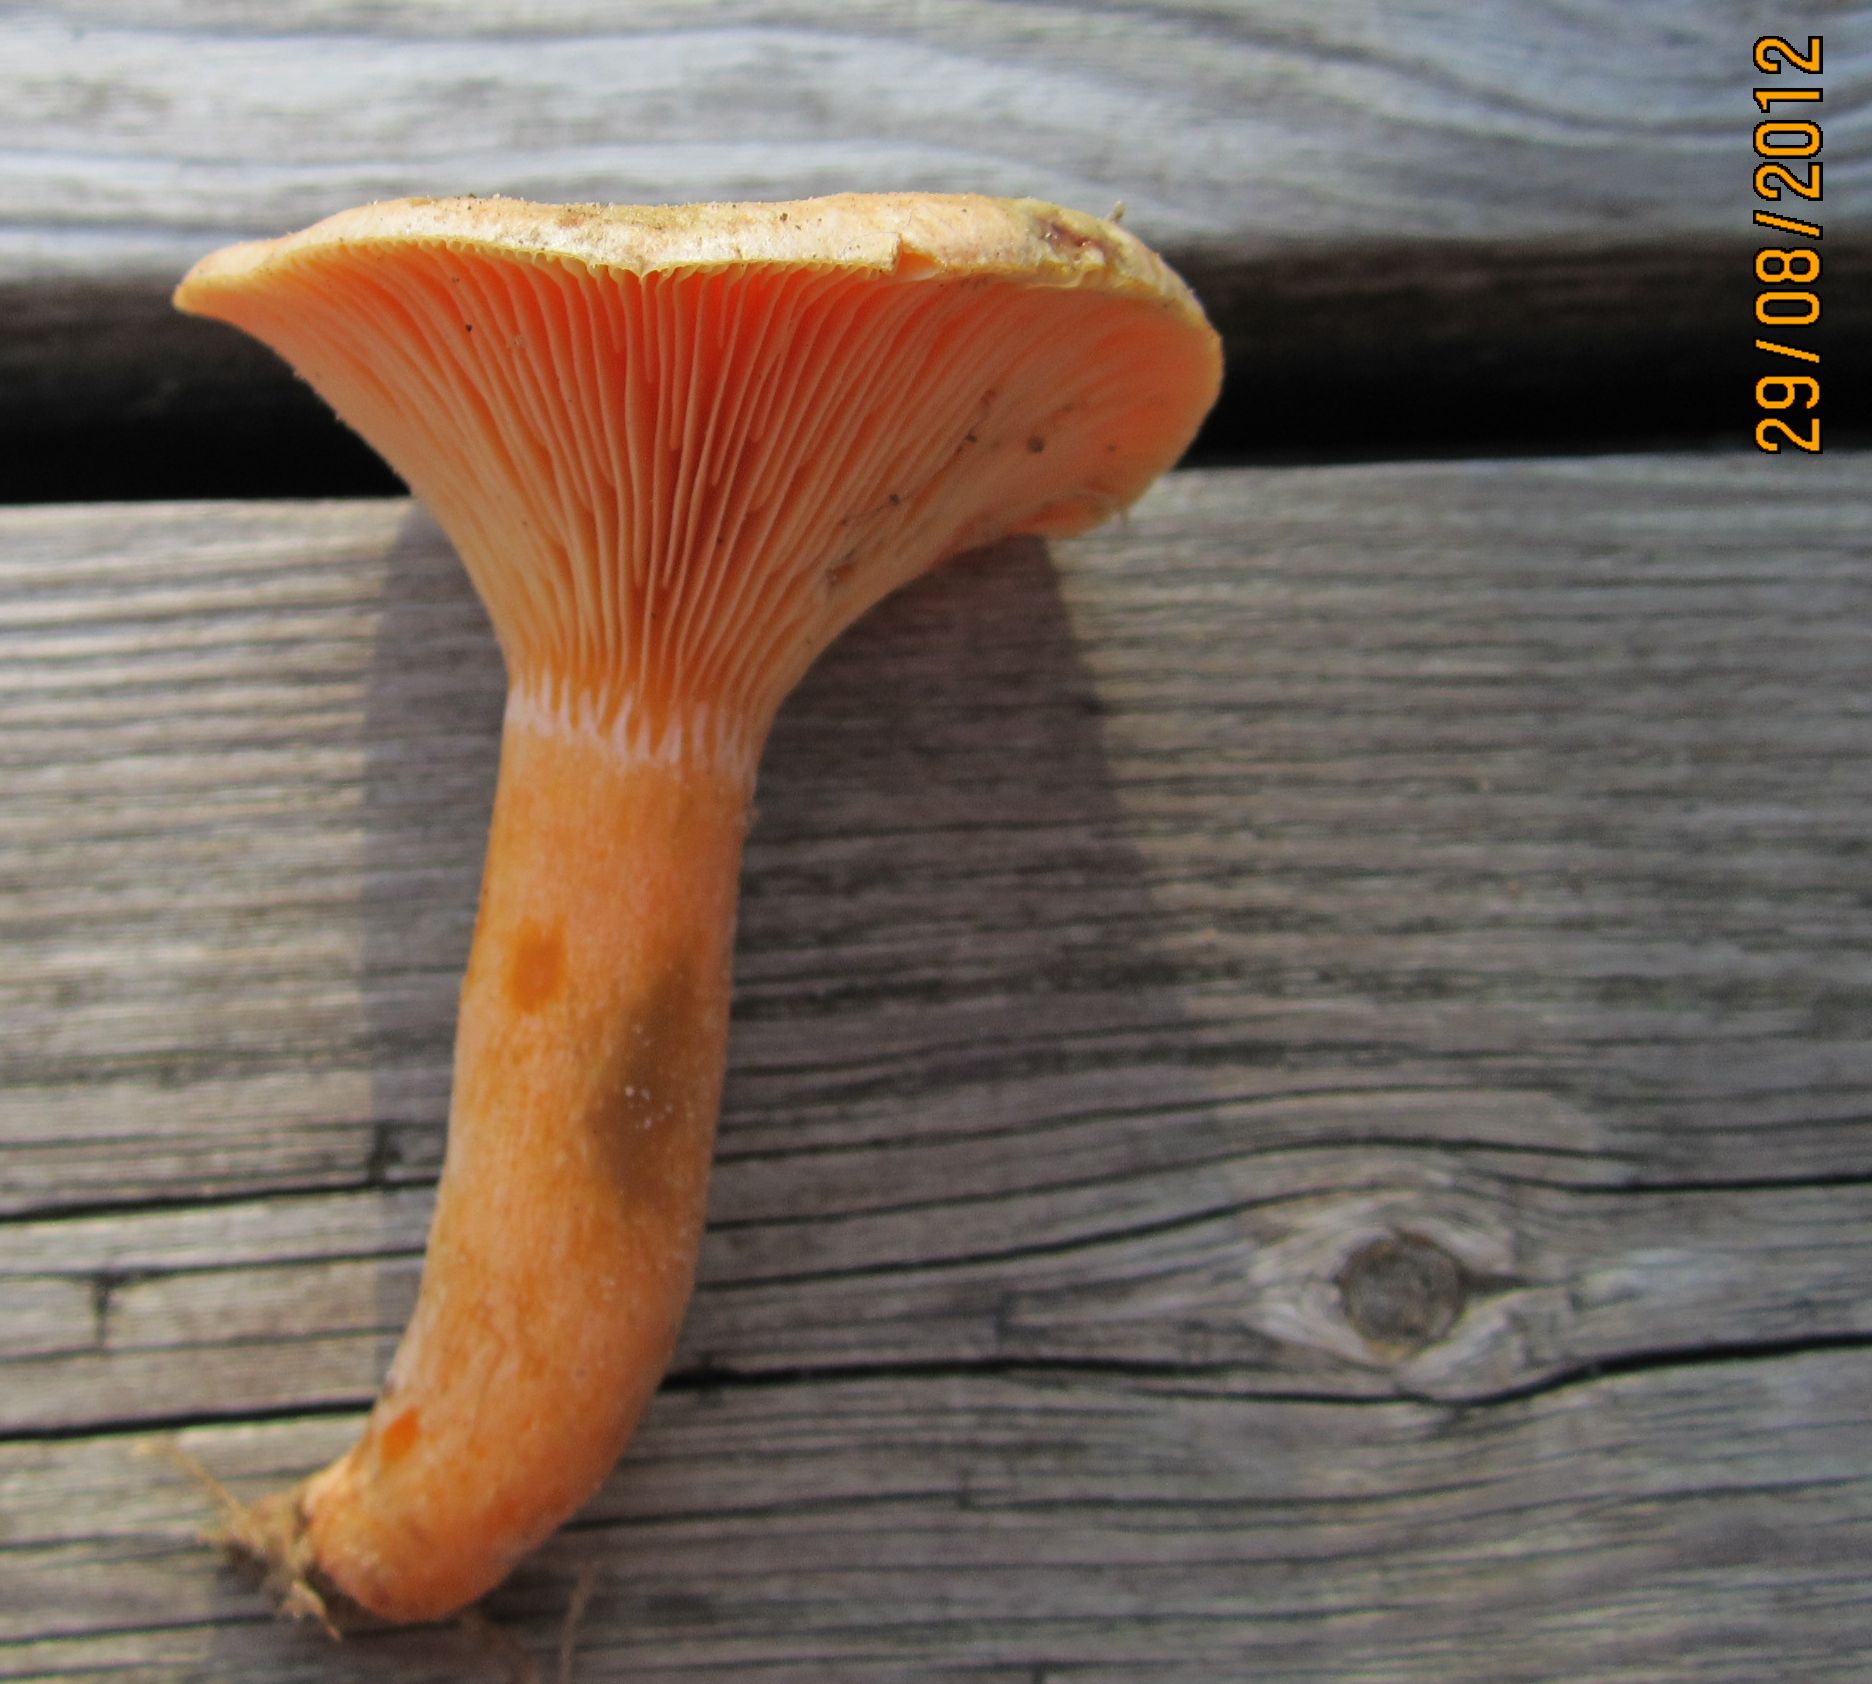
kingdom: Fungi
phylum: Basidiomycota
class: Agaricomycetes
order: Russulales
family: Russulaceae
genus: Lactarius
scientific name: Lactarius deterrimus
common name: gran-mælkehat
